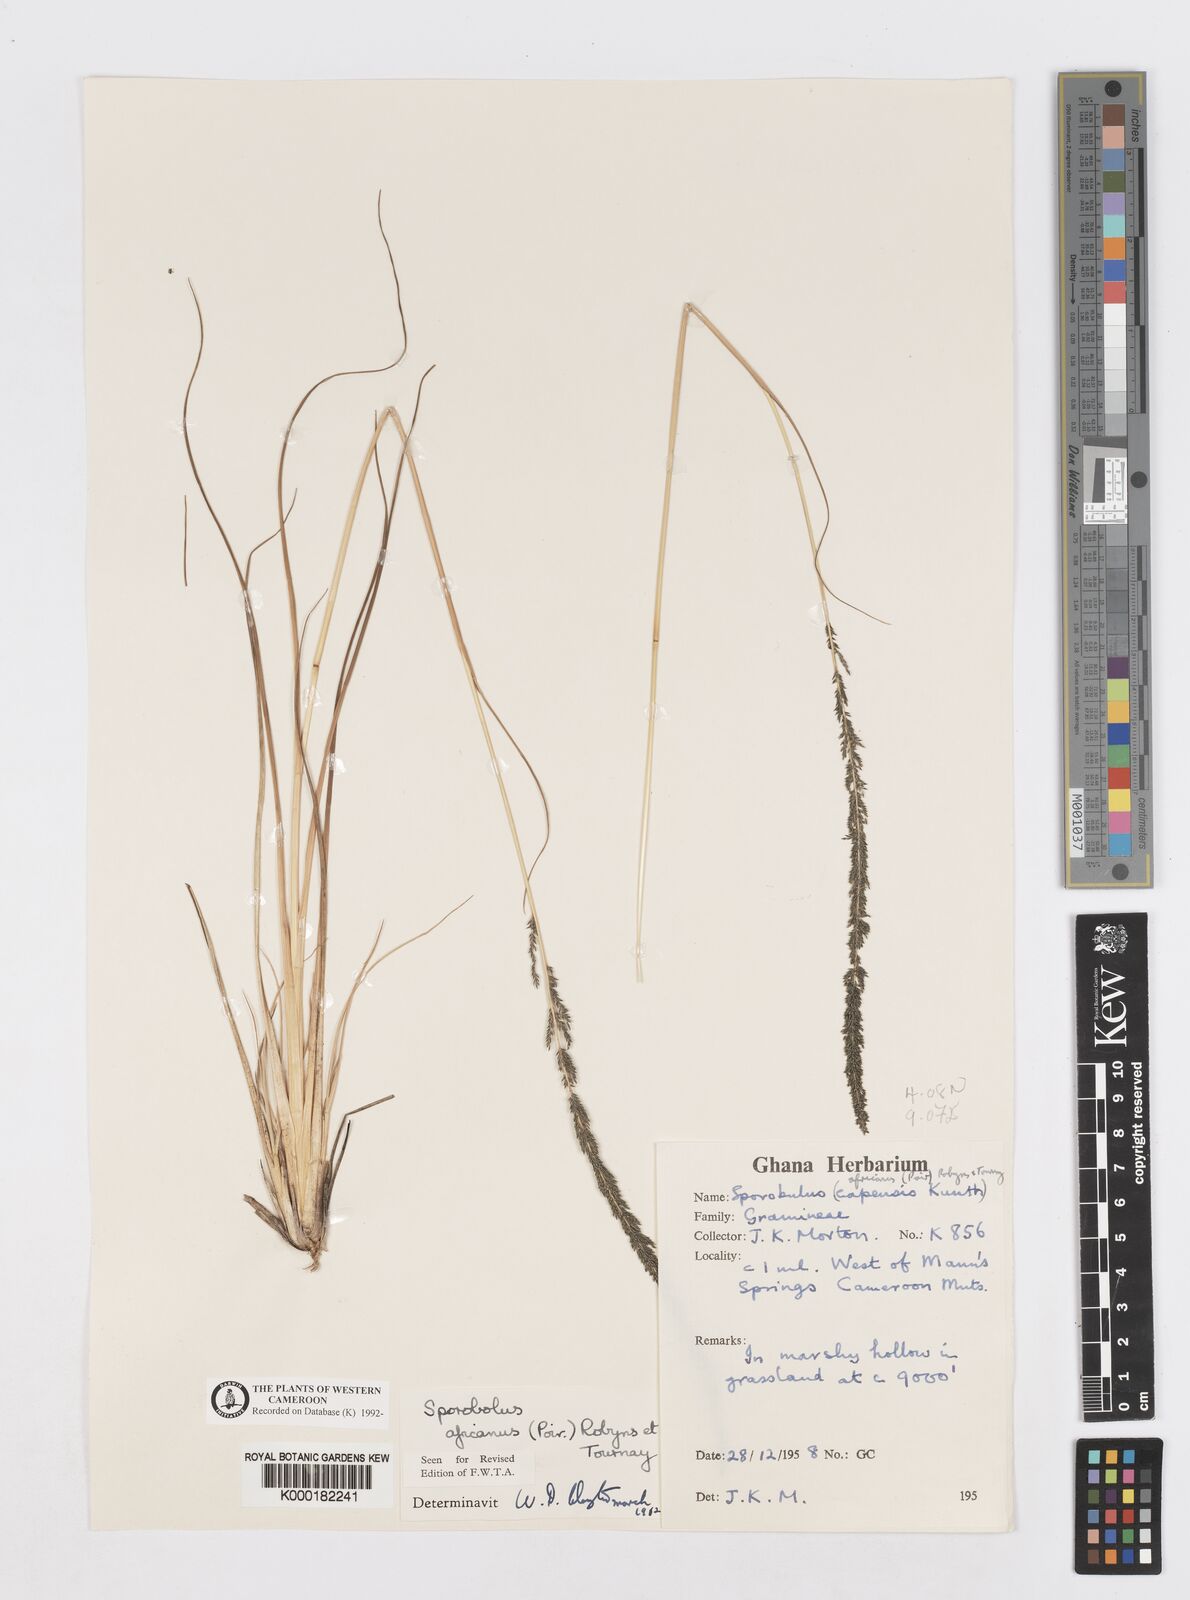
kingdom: Plantae
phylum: Tracheophyta
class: Liliopsida
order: Poales
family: Poaceae
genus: Sporobolus
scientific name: Sporobolus africanus
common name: African dropseed
